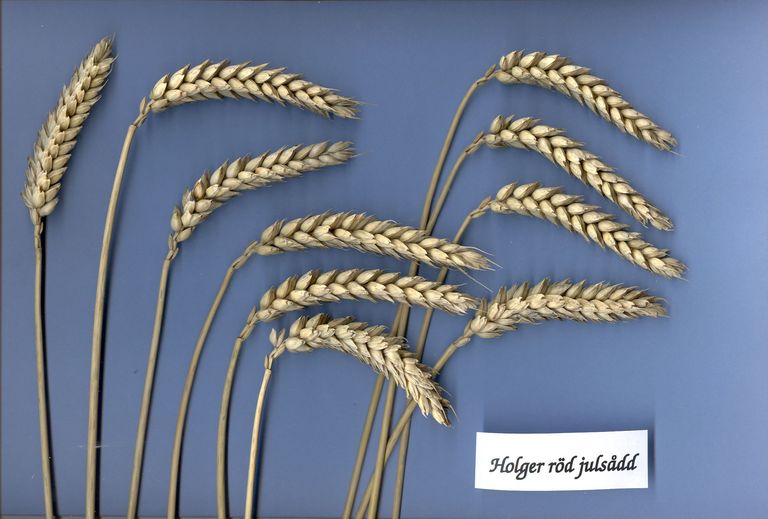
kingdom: Plantae
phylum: Tracheophyta
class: Liliopsida
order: Poales
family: Poaceae
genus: Triticum
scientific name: Triticum aestivum
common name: Common wheat
